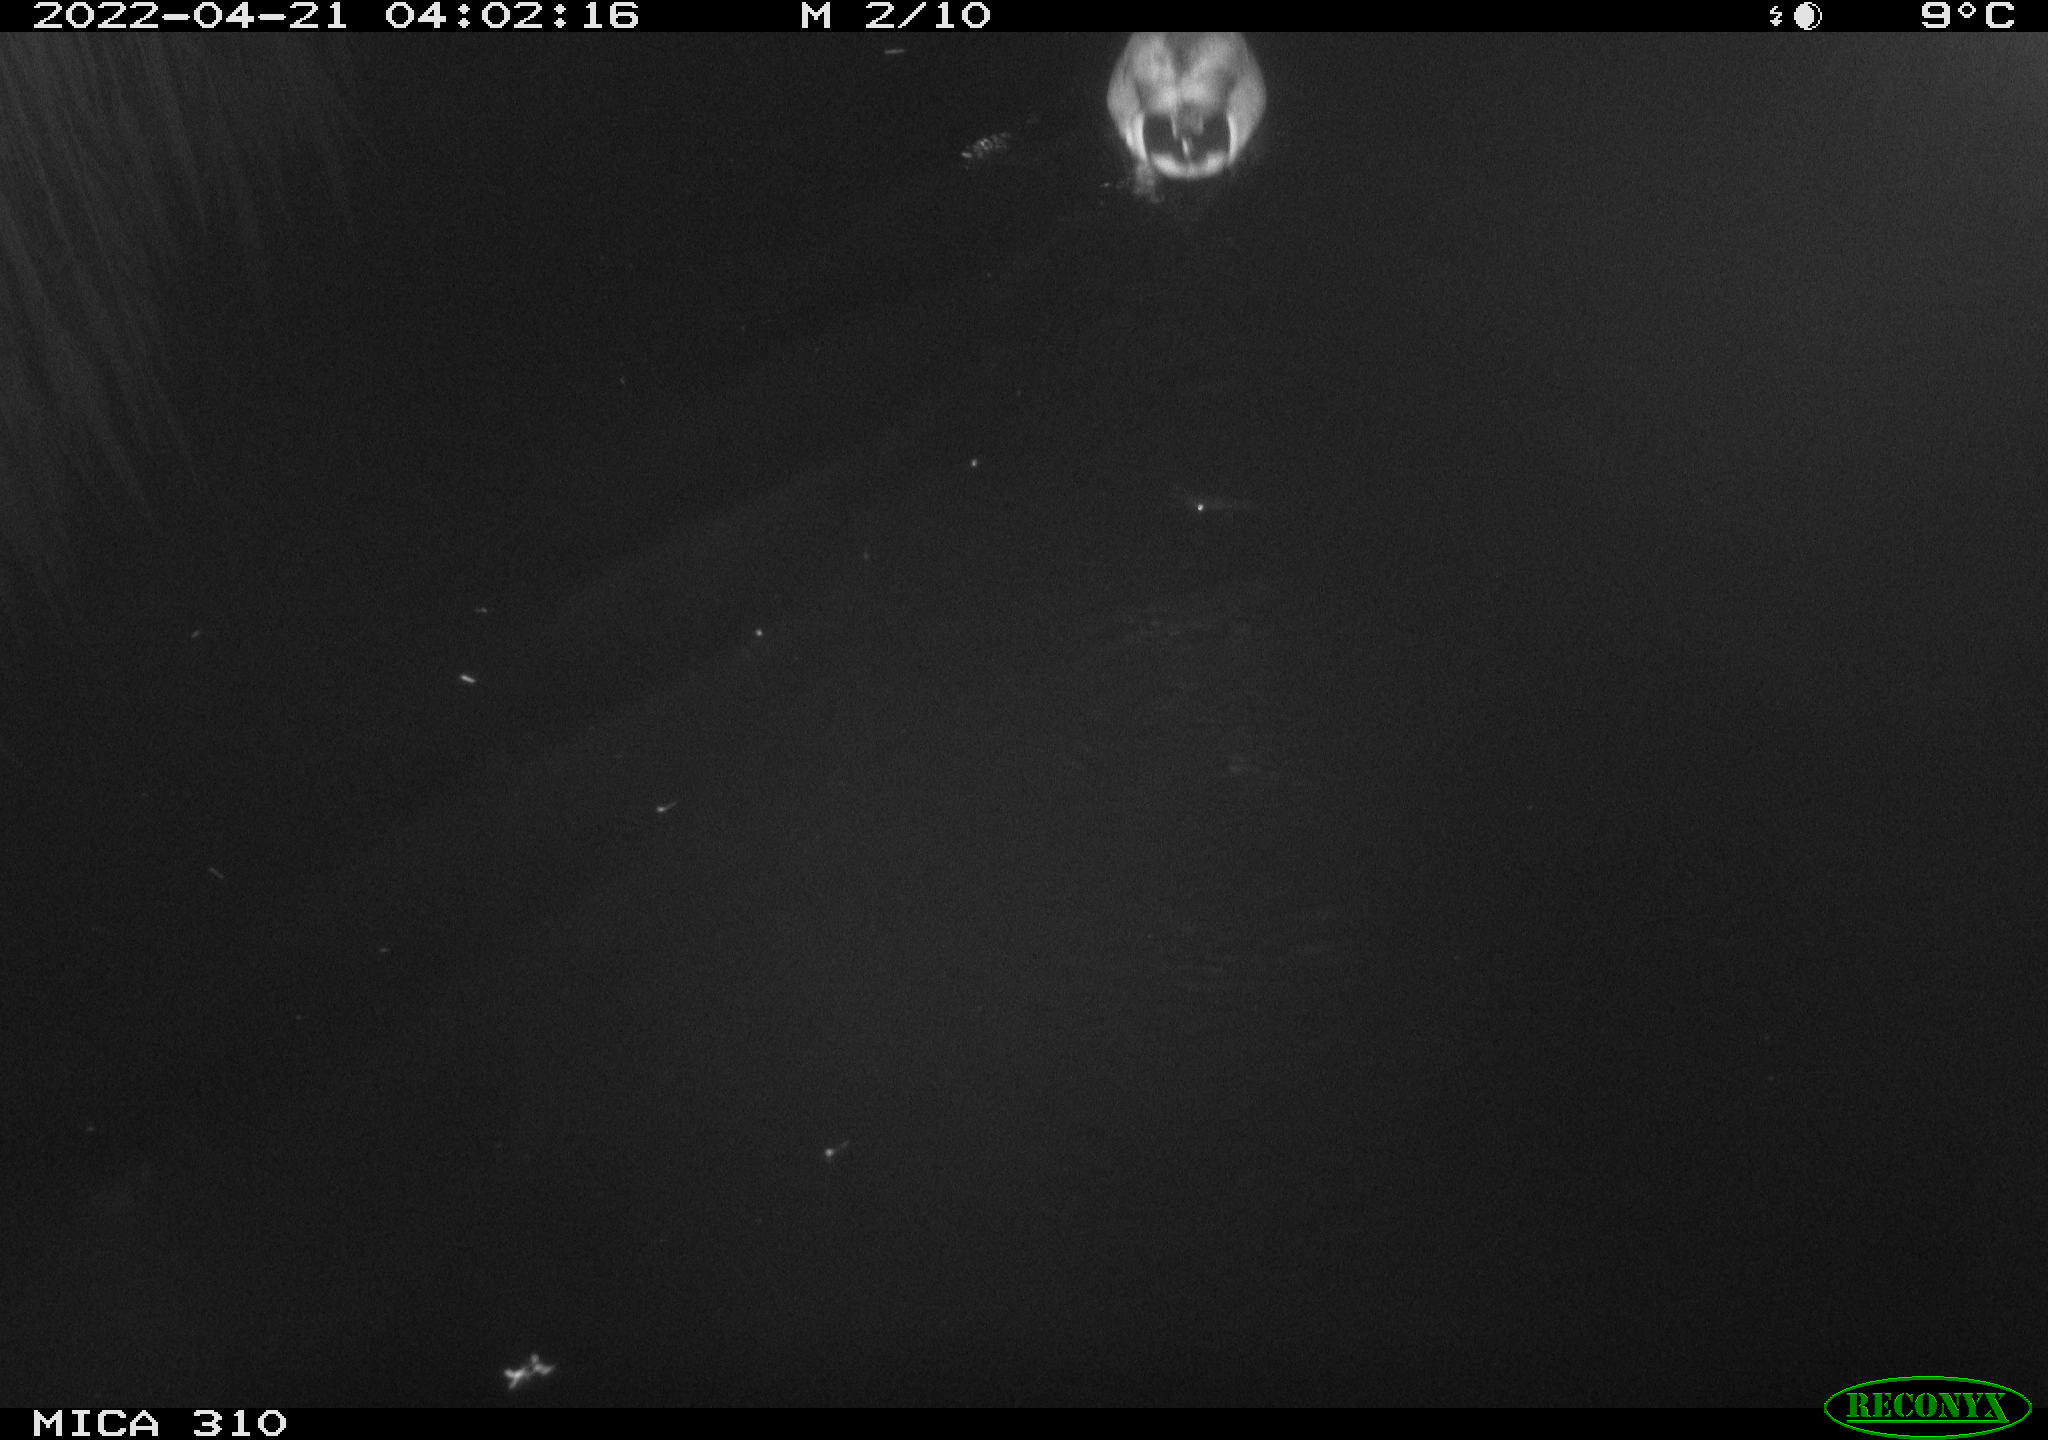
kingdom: Animalia
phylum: Chordata
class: Aves
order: Anseriformes
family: Anatidae
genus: Anas
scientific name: Anas platyrhynchos
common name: Mallard
